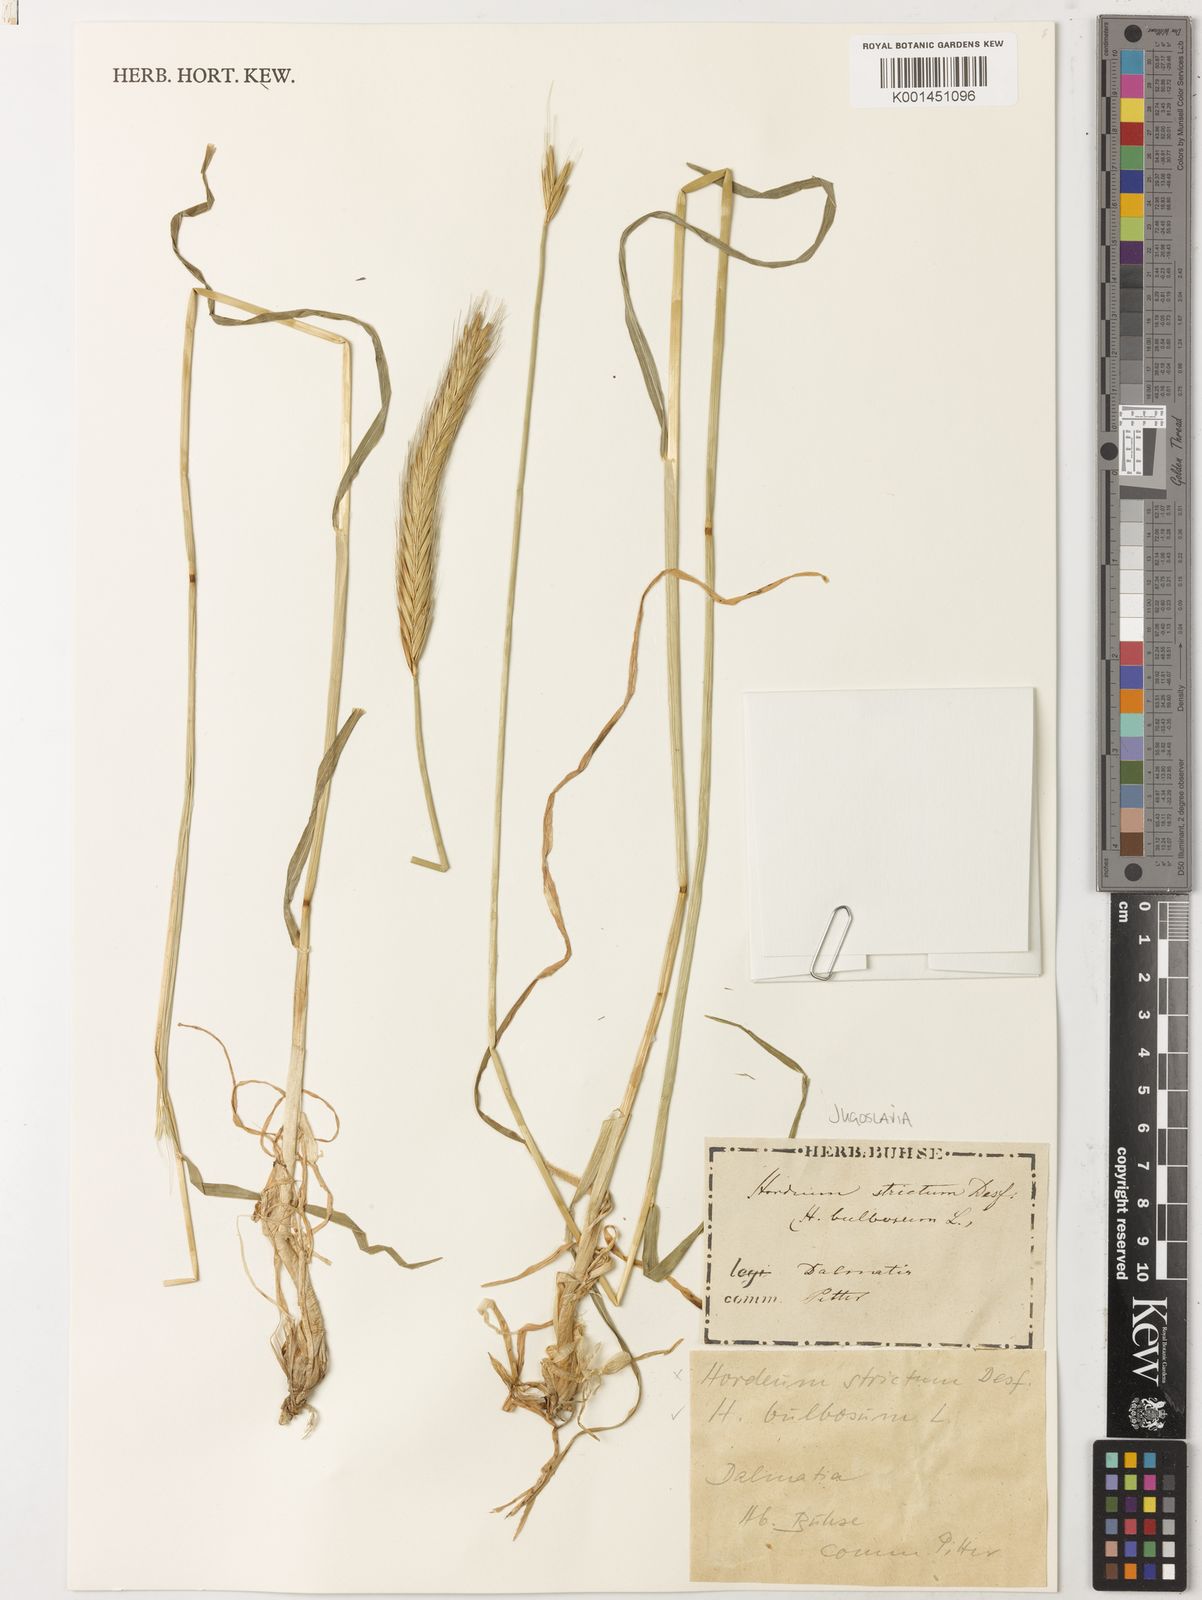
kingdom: Plantae
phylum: Tracheophyta
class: Liliopsida
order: Poales
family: Poaceae
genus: Hordeum
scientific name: Hordeum bulbosum
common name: Bulbous barley
